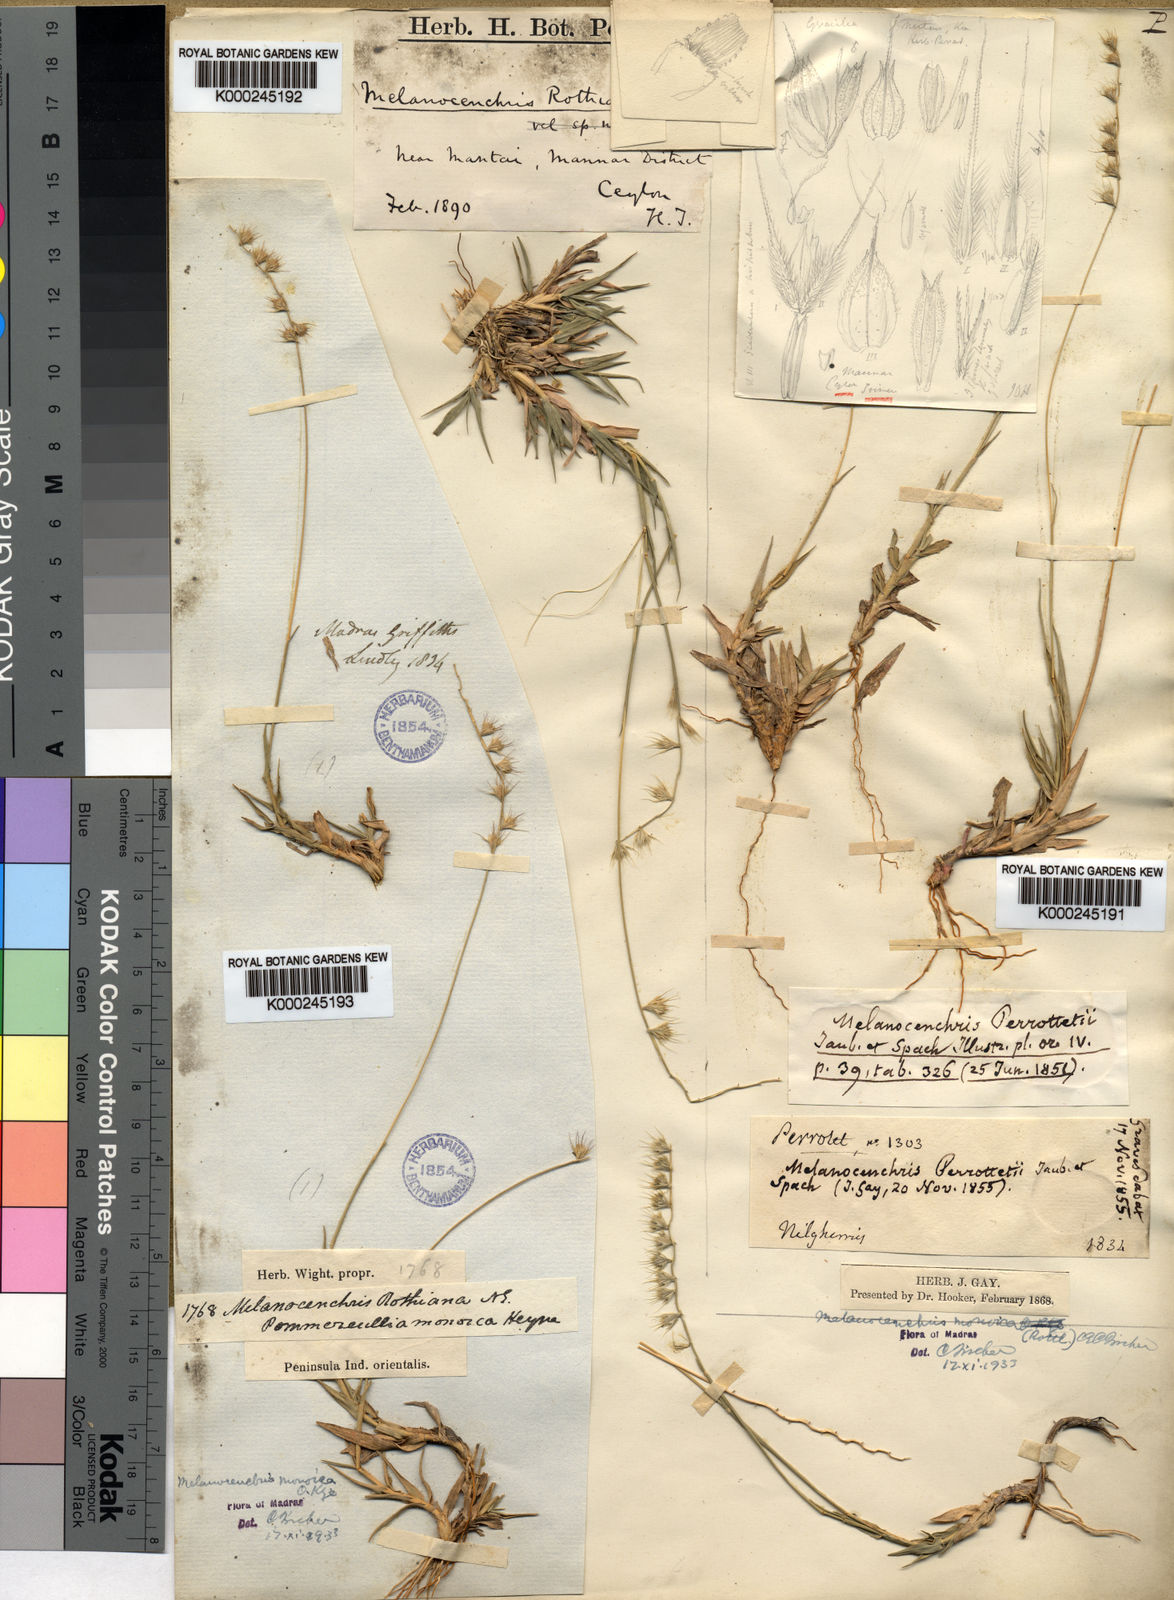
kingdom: Plantae
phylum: Tracheophyta
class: Liliopsida
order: Poales
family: Poaceae
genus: Melanocenchris
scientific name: Melanocenchris rothiana
